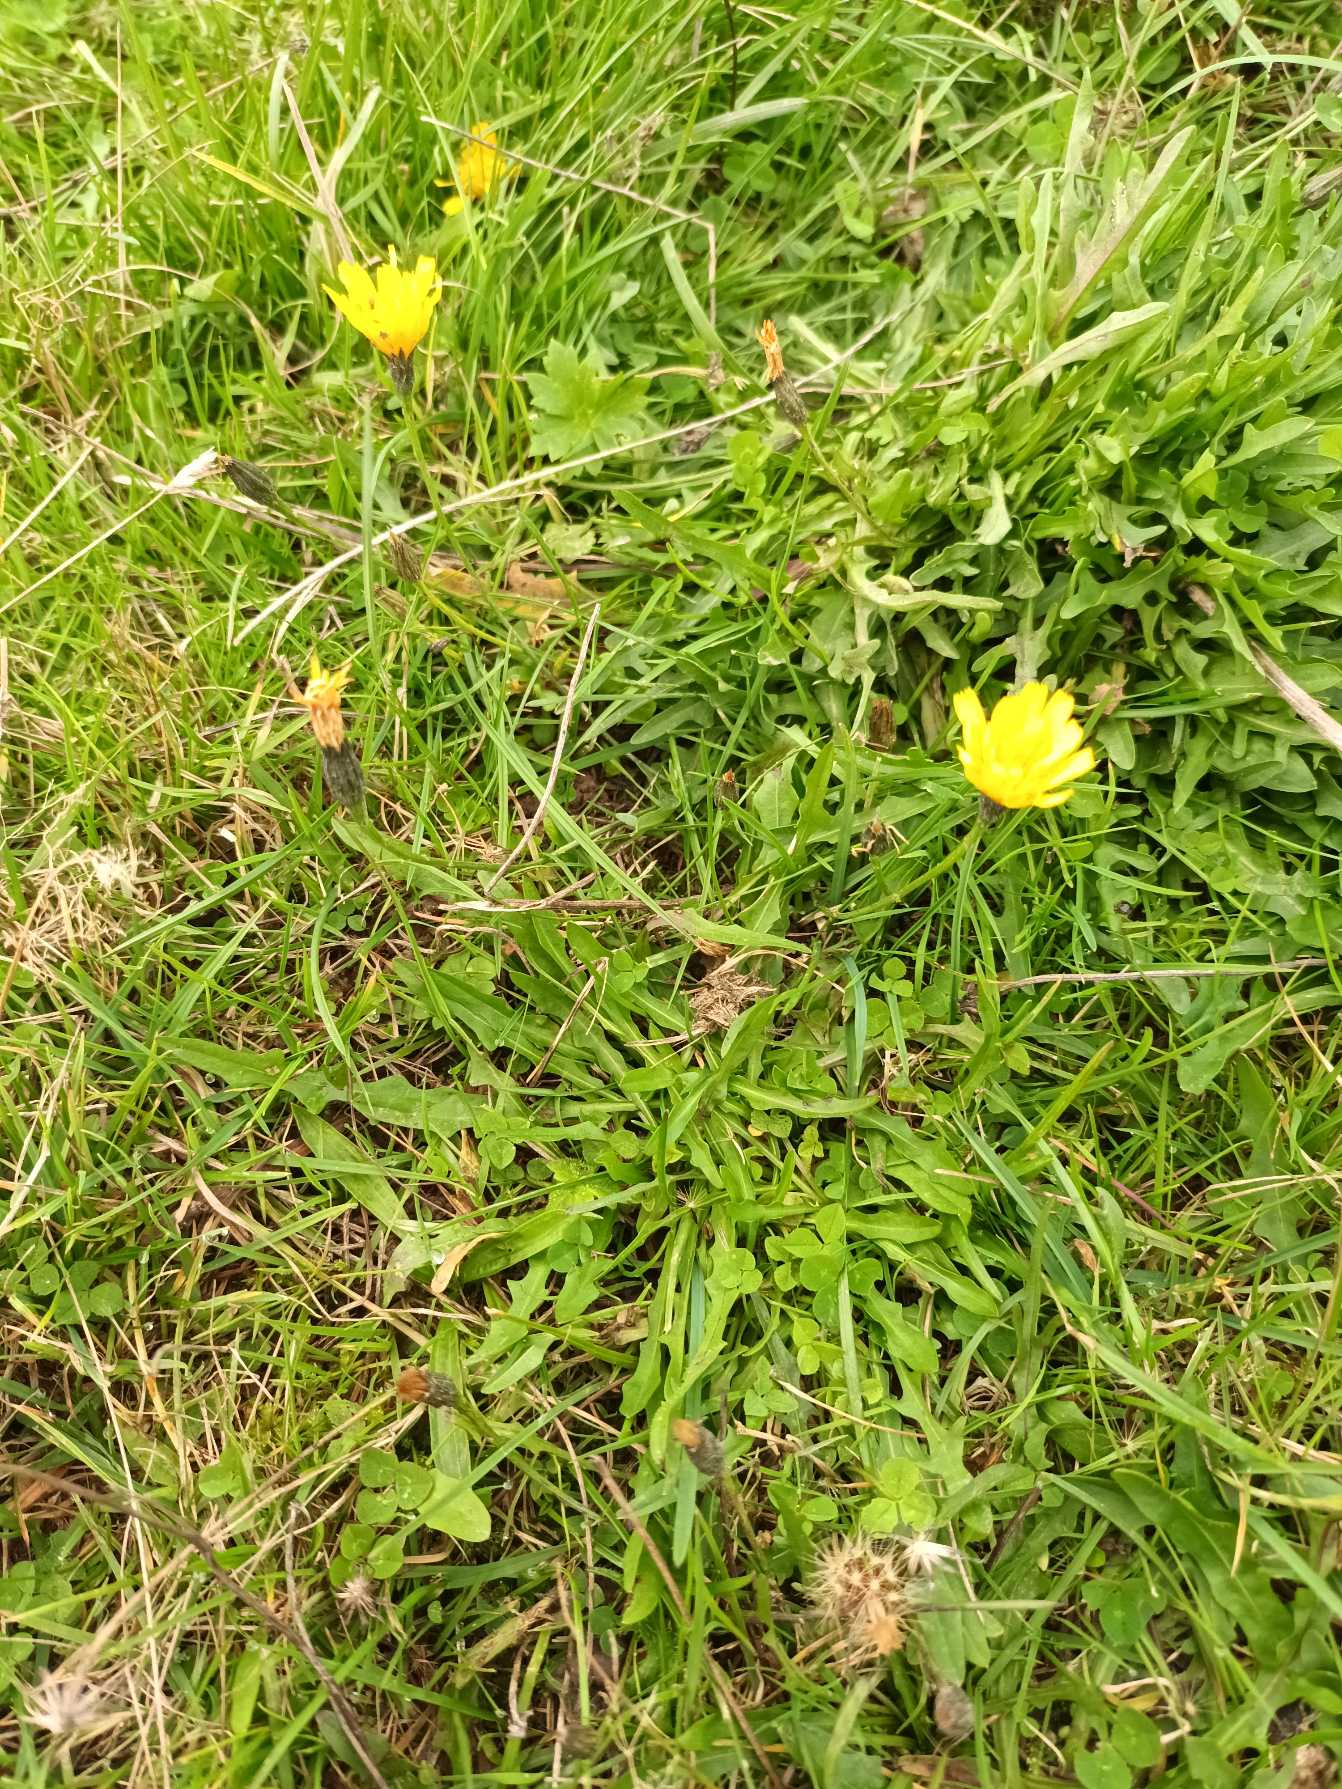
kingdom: Plantae
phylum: Tracheophyta
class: Magnoliopsida
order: Asterales
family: Asteraceae
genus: Scorzoneroides
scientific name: Scorzoneroides autumnalis
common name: Høst-borst
